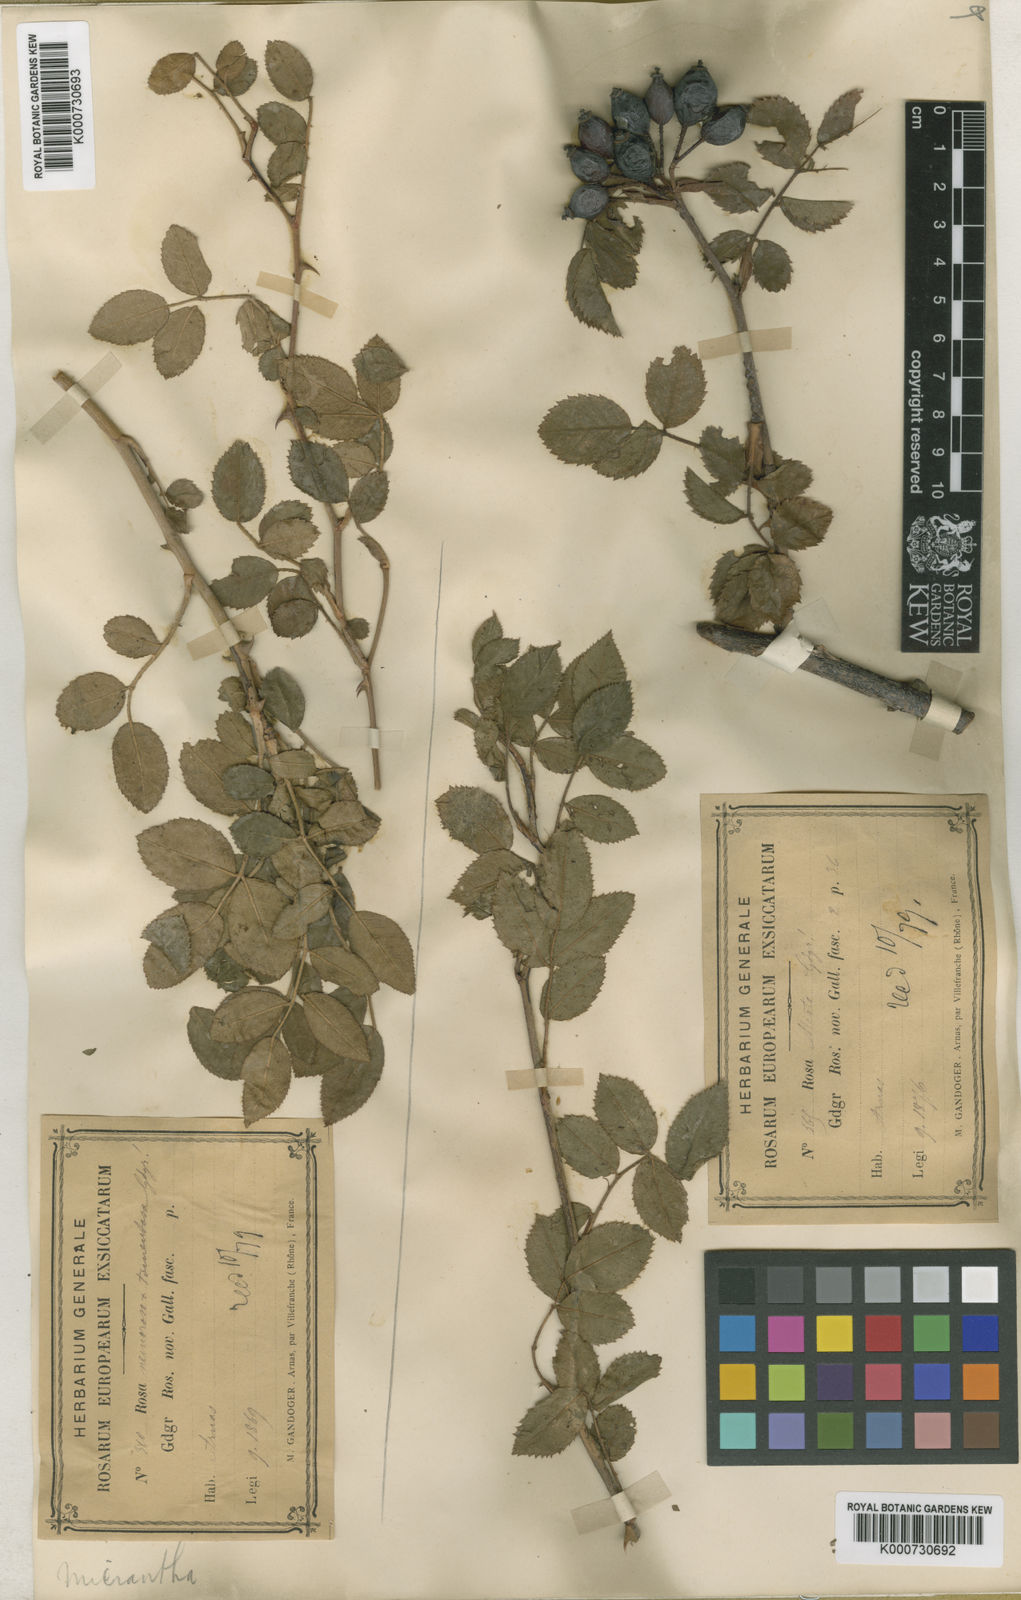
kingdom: Plantae
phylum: Tracheophyta
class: Magnoliopsida
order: Rosales
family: Rosaceae
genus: Rosa
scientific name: Rosa
